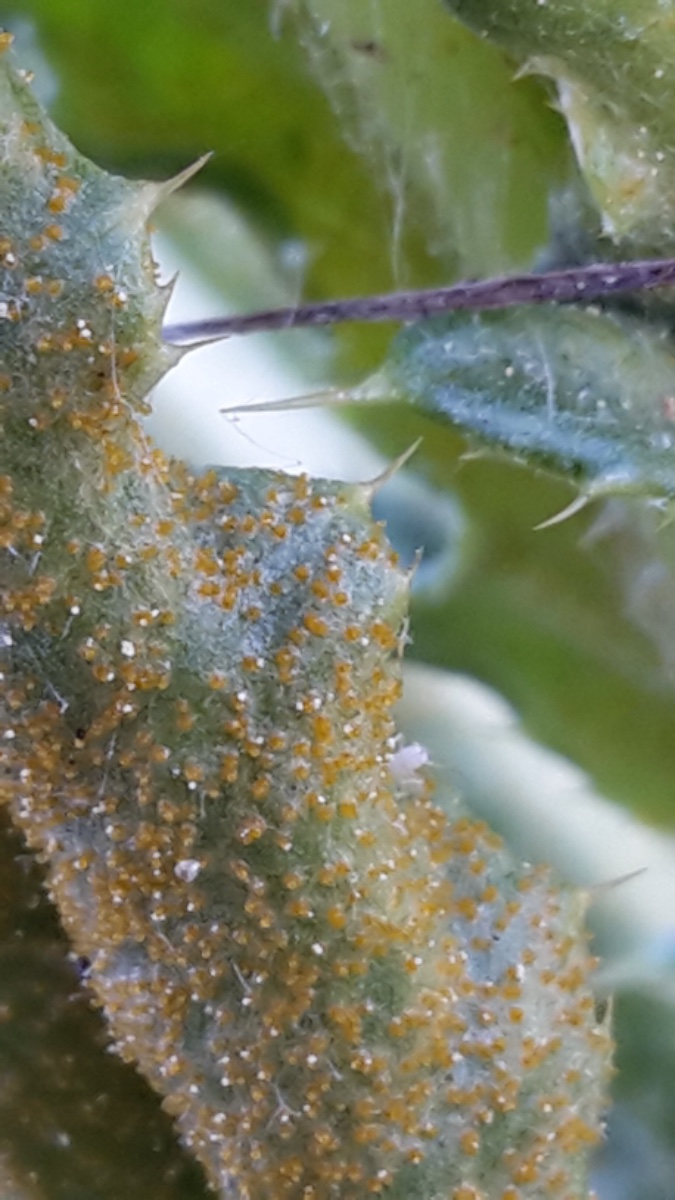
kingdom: Fungi
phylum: Basidiomycota
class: Pucciniomycetes
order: Pucciniales
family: Pucciniaceae
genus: Puccinia
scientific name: Puccinia suaveolens
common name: tidsel-tvecellerust
